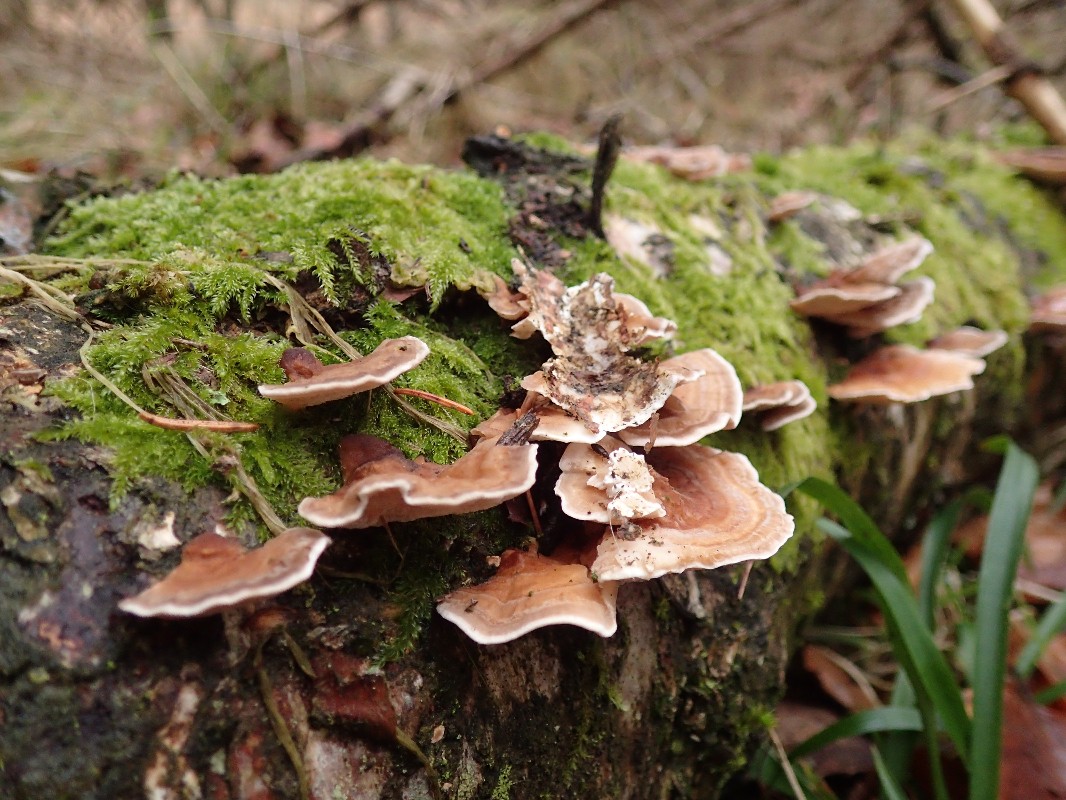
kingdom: Fungi
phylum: Basidiomycota
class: Agaricomycetes
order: Polyporales
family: Polyporaceae
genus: Trametes
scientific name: Trametes hirsuta
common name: håret læderporesvamp
